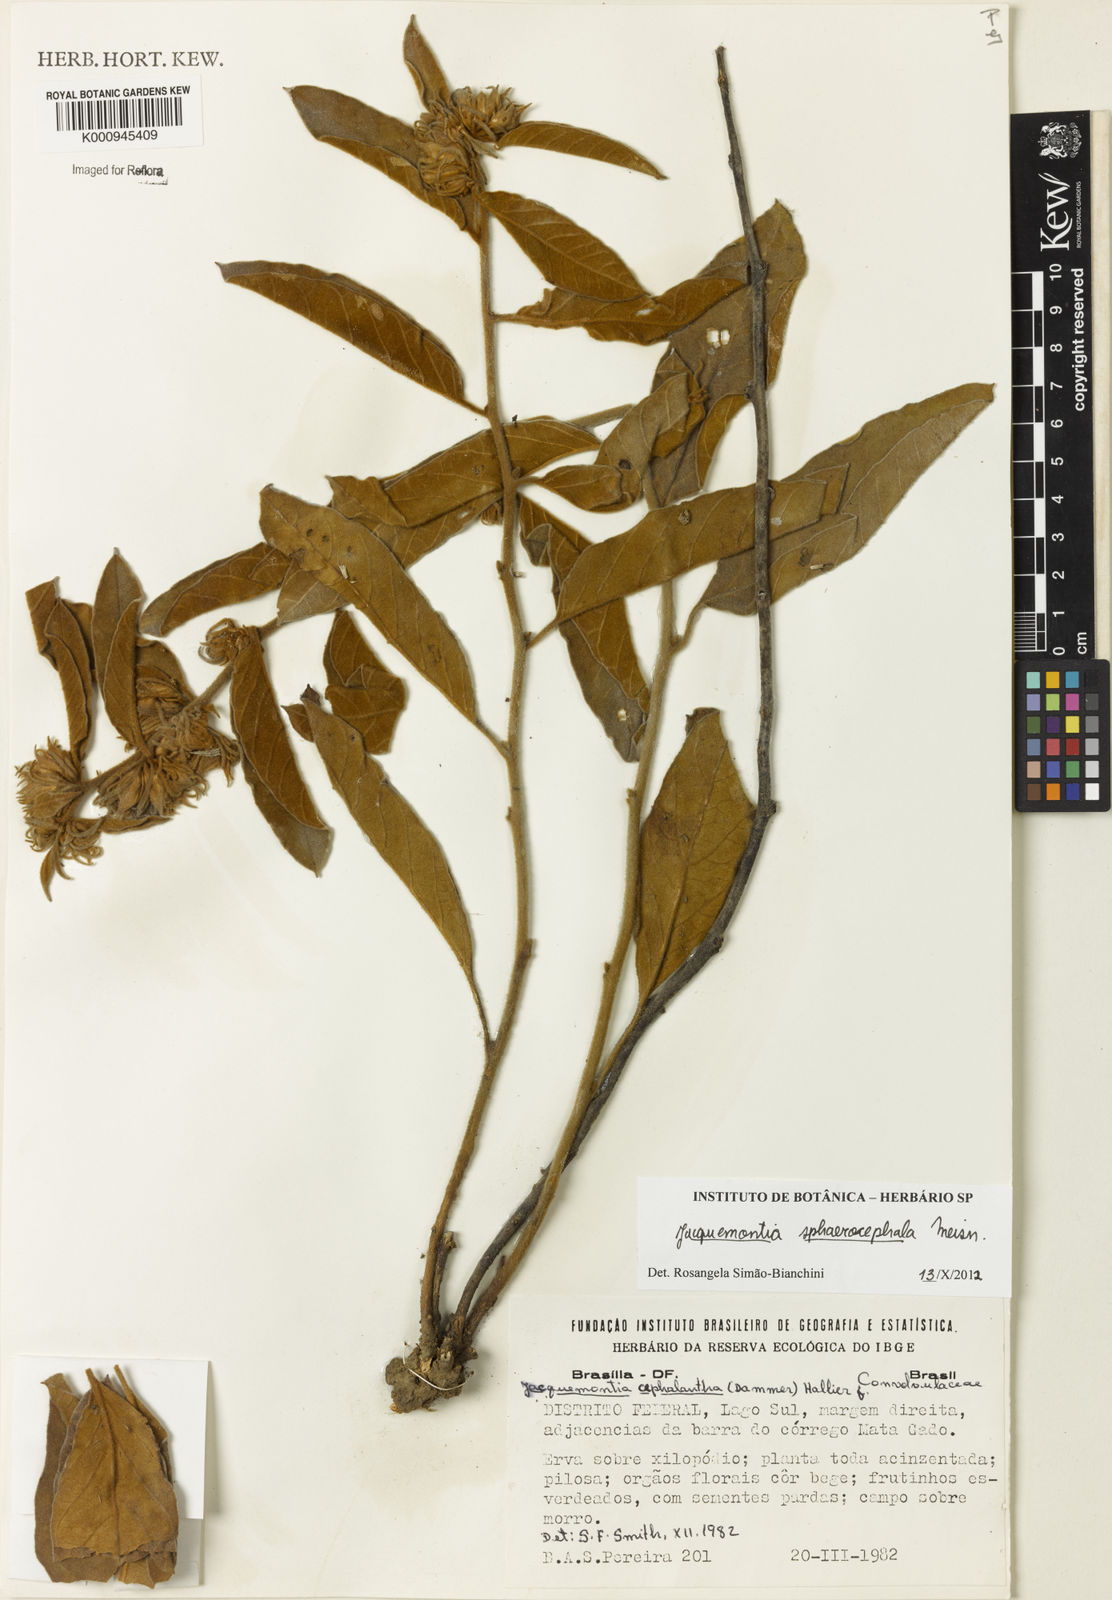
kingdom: Plantae
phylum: Tracheophyta
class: Magnoliopsida
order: Solanales
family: Convolvulaceae
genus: Jacquemontia
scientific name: Jacquemontia sphaerocephala
